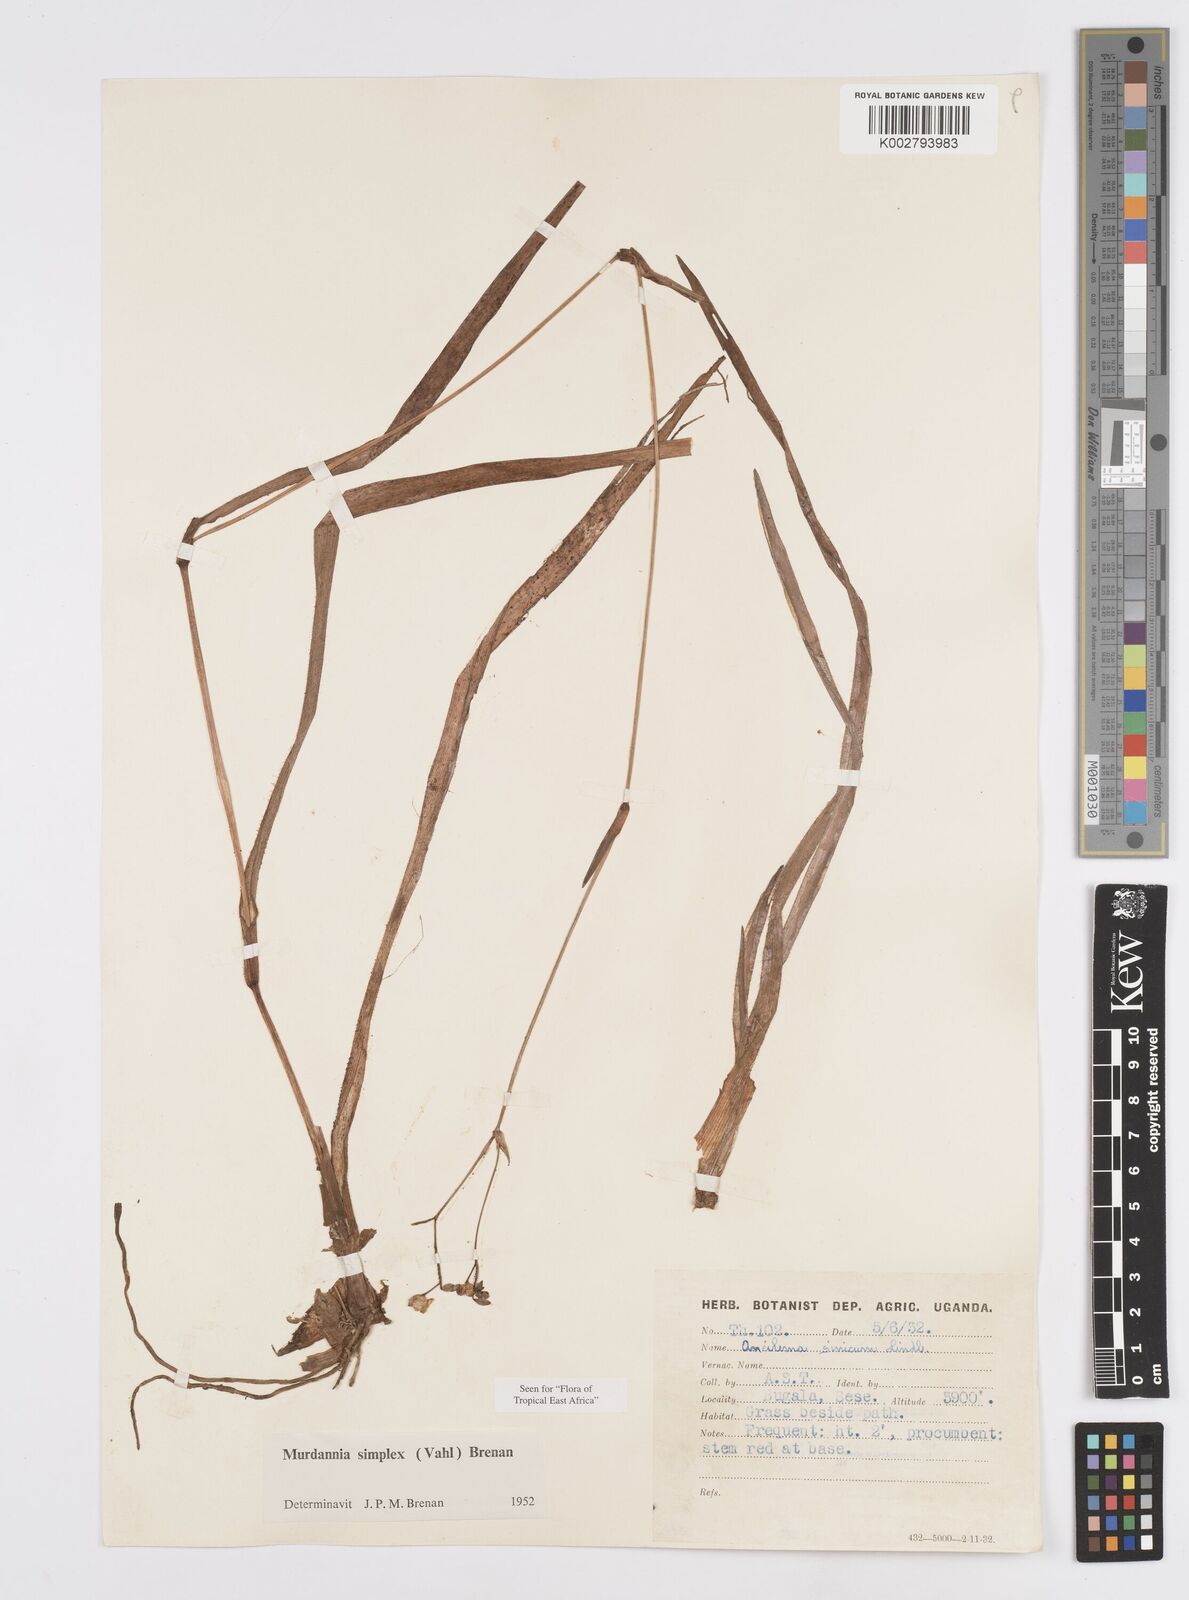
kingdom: Plantae
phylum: Tracheophyta
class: Liliopsida
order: Commelinales
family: Commelinaceae
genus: Murdannia
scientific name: Murdannia simplex
